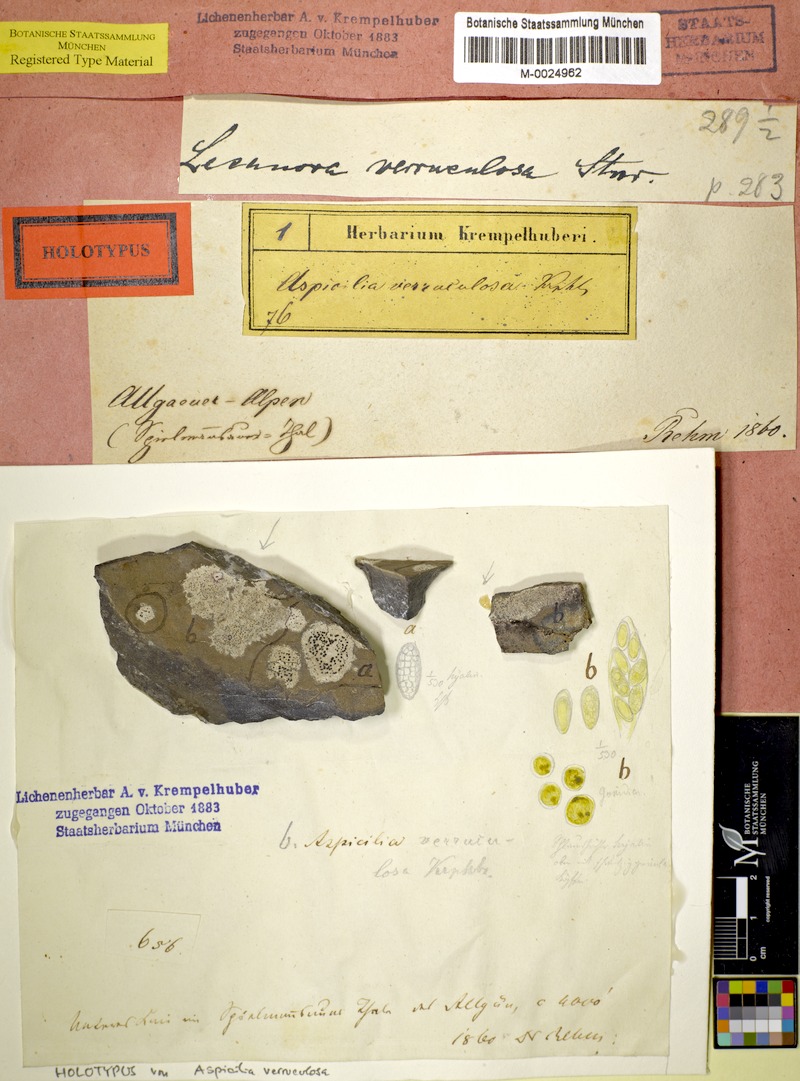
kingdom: Fungi
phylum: Ascomycota
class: Lecanoromycetes
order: Pertusariales
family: Megasporaceae
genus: Oxneriaria
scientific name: Oxneriaria verruculosa
